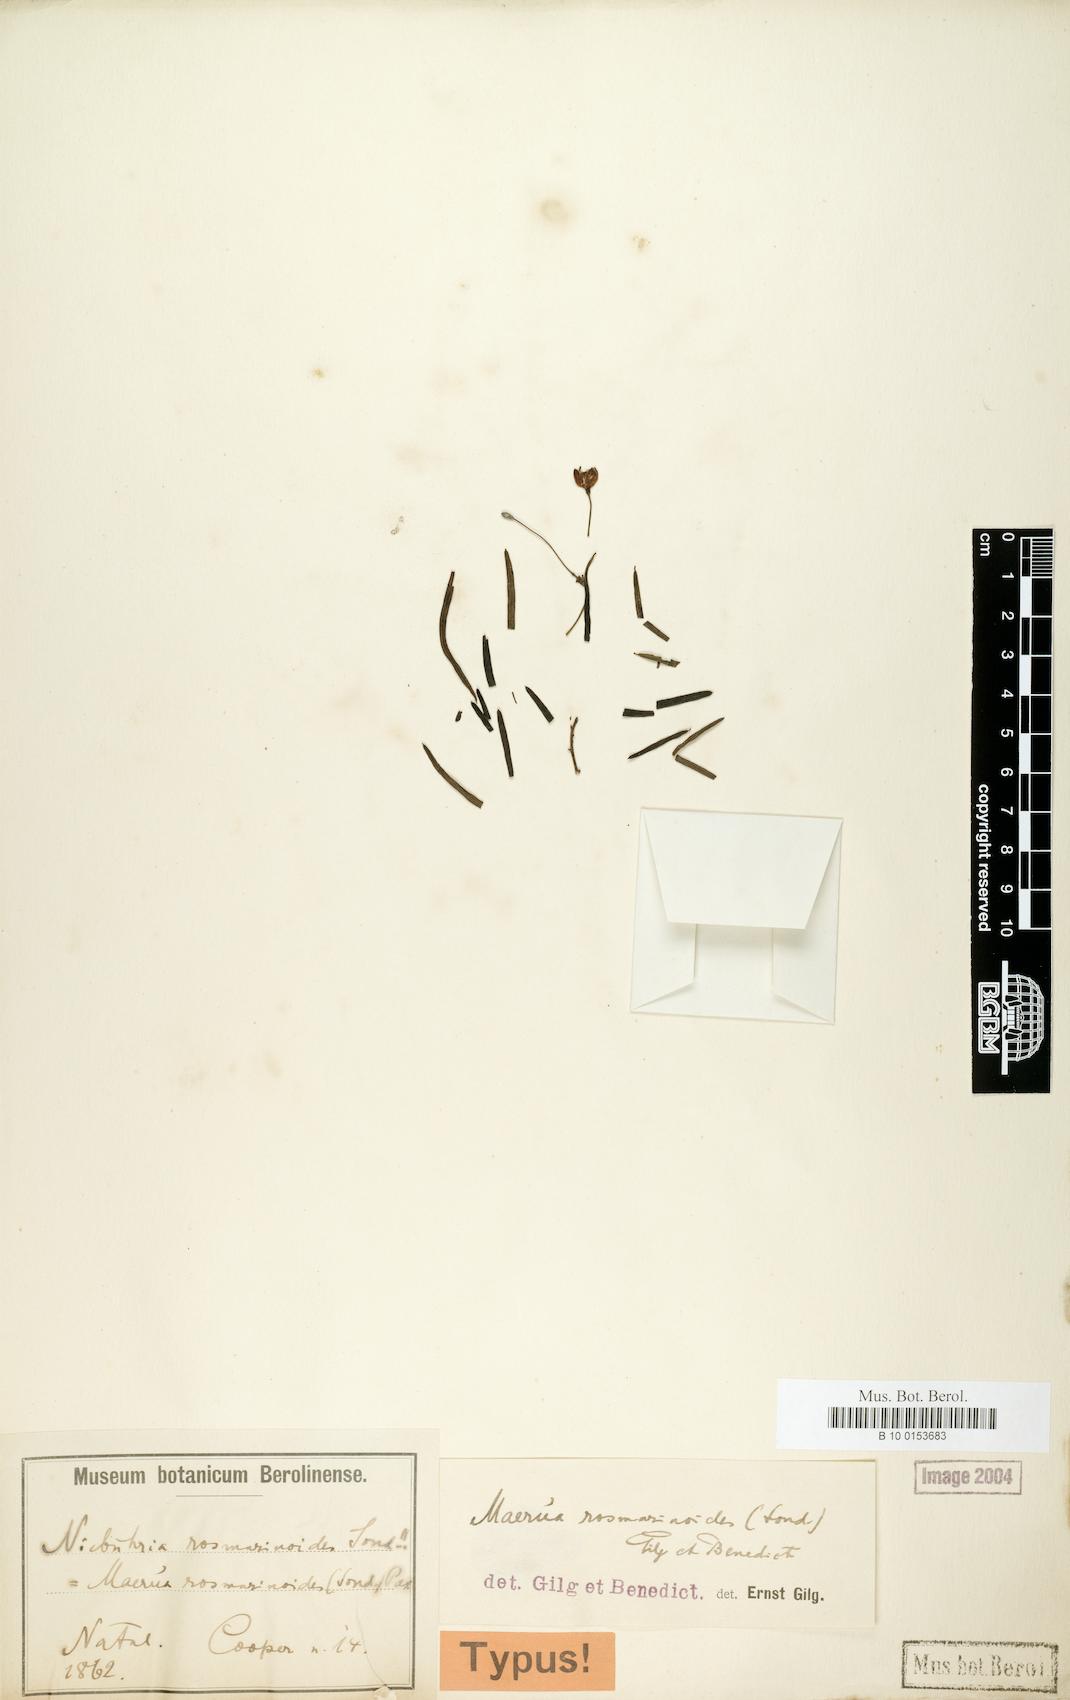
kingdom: Plantae
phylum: Tracheophyta
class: Magnoliopsida
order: Brassicales
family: Capparaceae
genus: Maerua
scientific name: Maerua rosmarinoides
